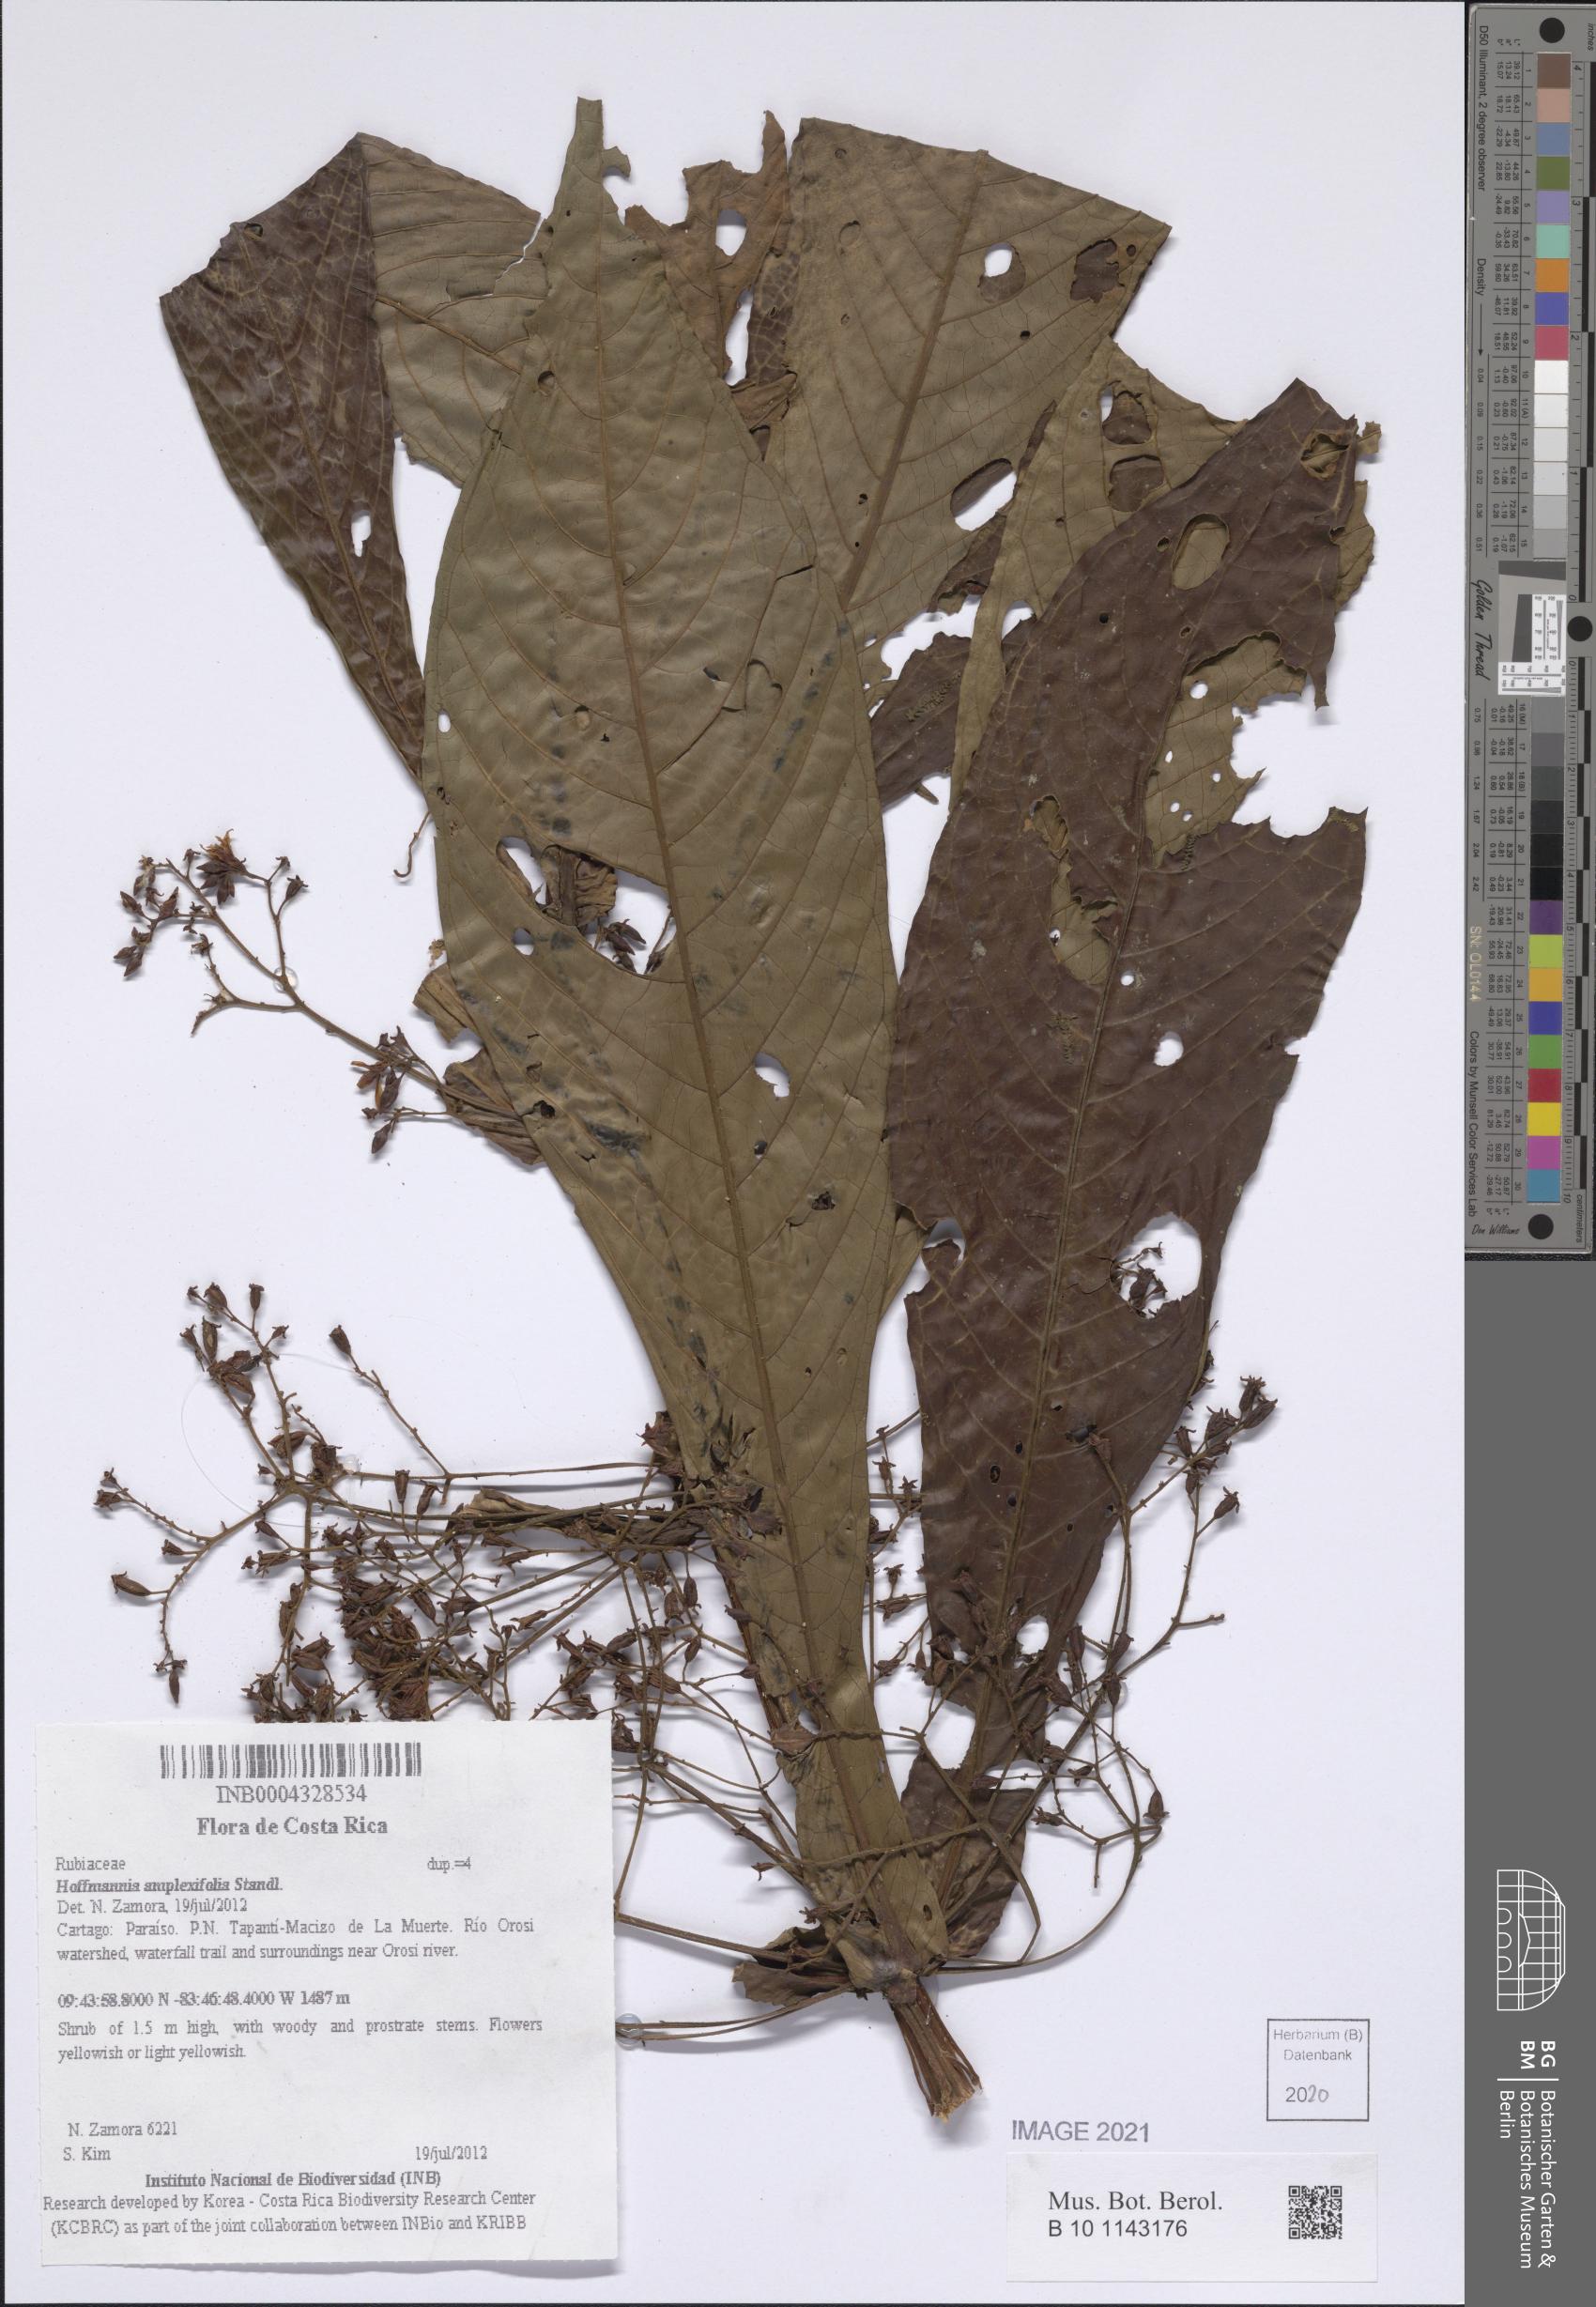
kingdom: Plantae
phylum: Tracheophyta
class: Magnoliopsida
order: Gentianales
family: Rubiaceae
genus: Hoffmannia
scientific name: Hoffmannia amplexifolia
